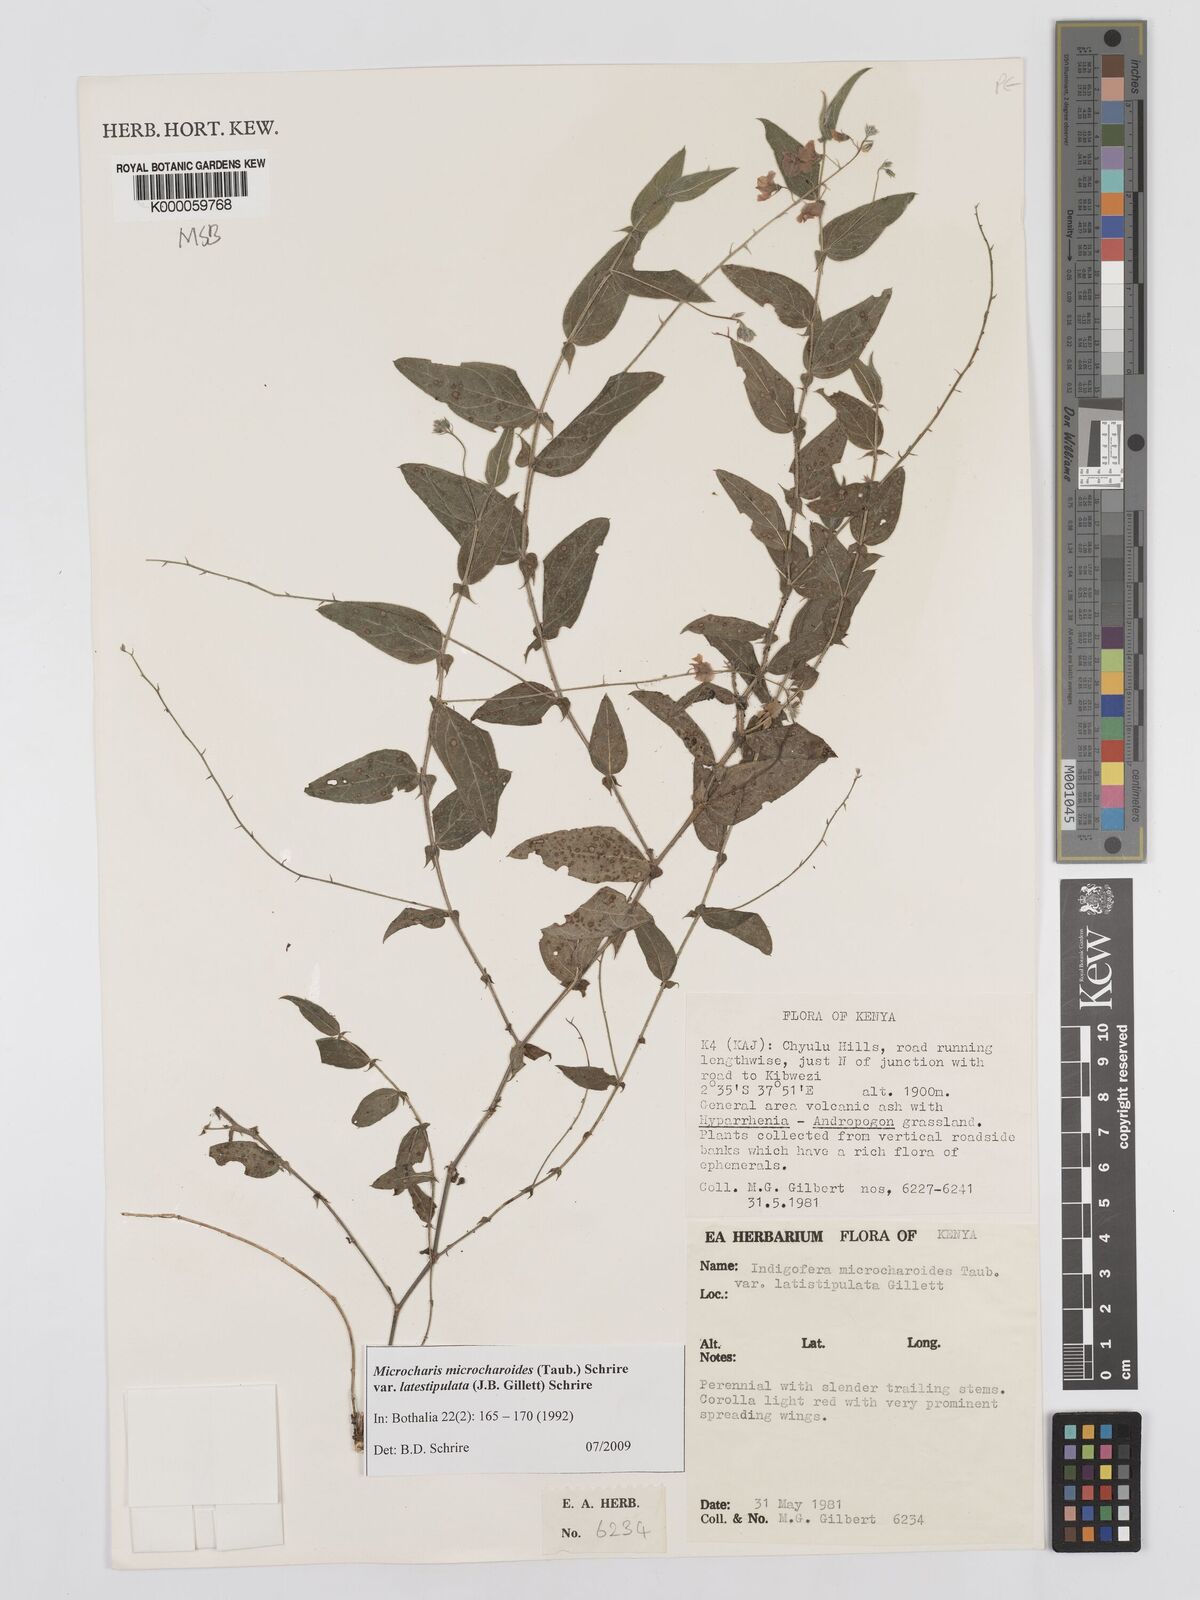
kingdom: Plantae
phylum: Tracheophyta
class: Magnoliopsida
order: Fabales
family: Fabaceae
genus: Indigofera
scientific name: Indigofera
